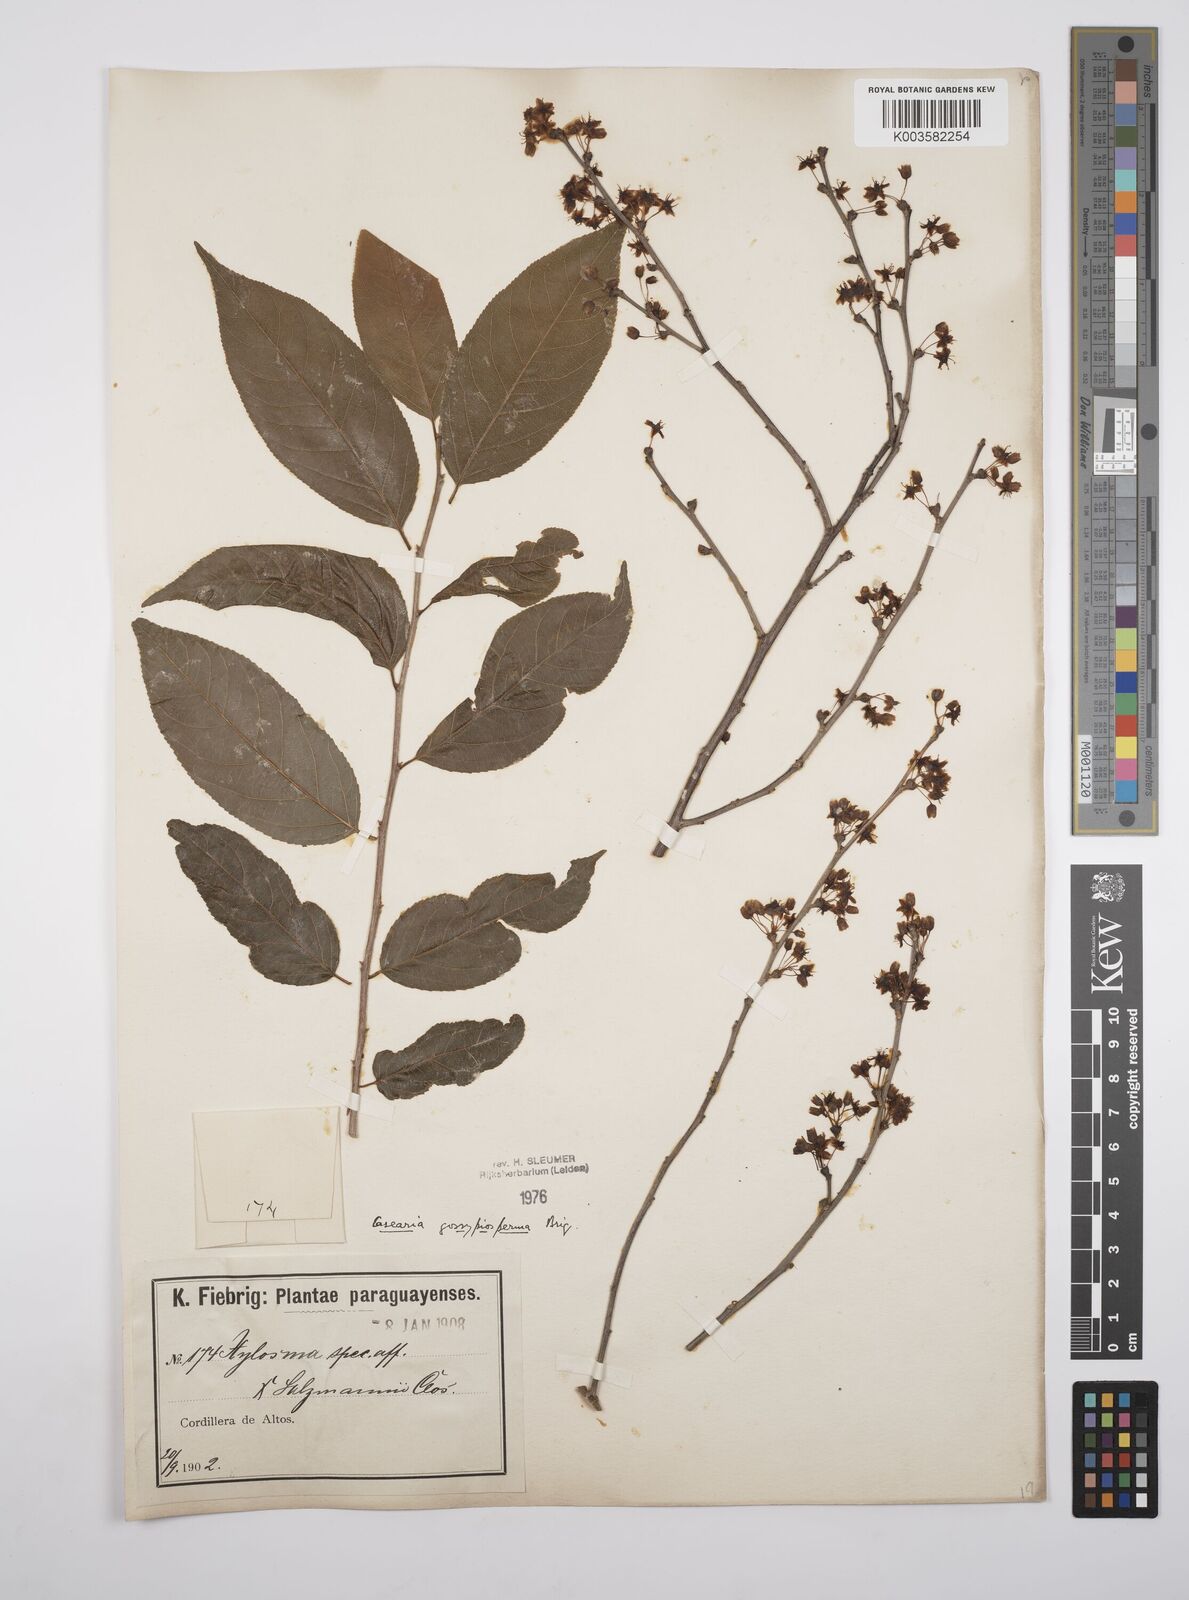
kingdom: Plantae
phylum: Tracheophyta
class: Magnoliopsida
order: Malpighiales
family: Salicaceae
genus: Casearia
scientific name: Casearia gossypiosperma
